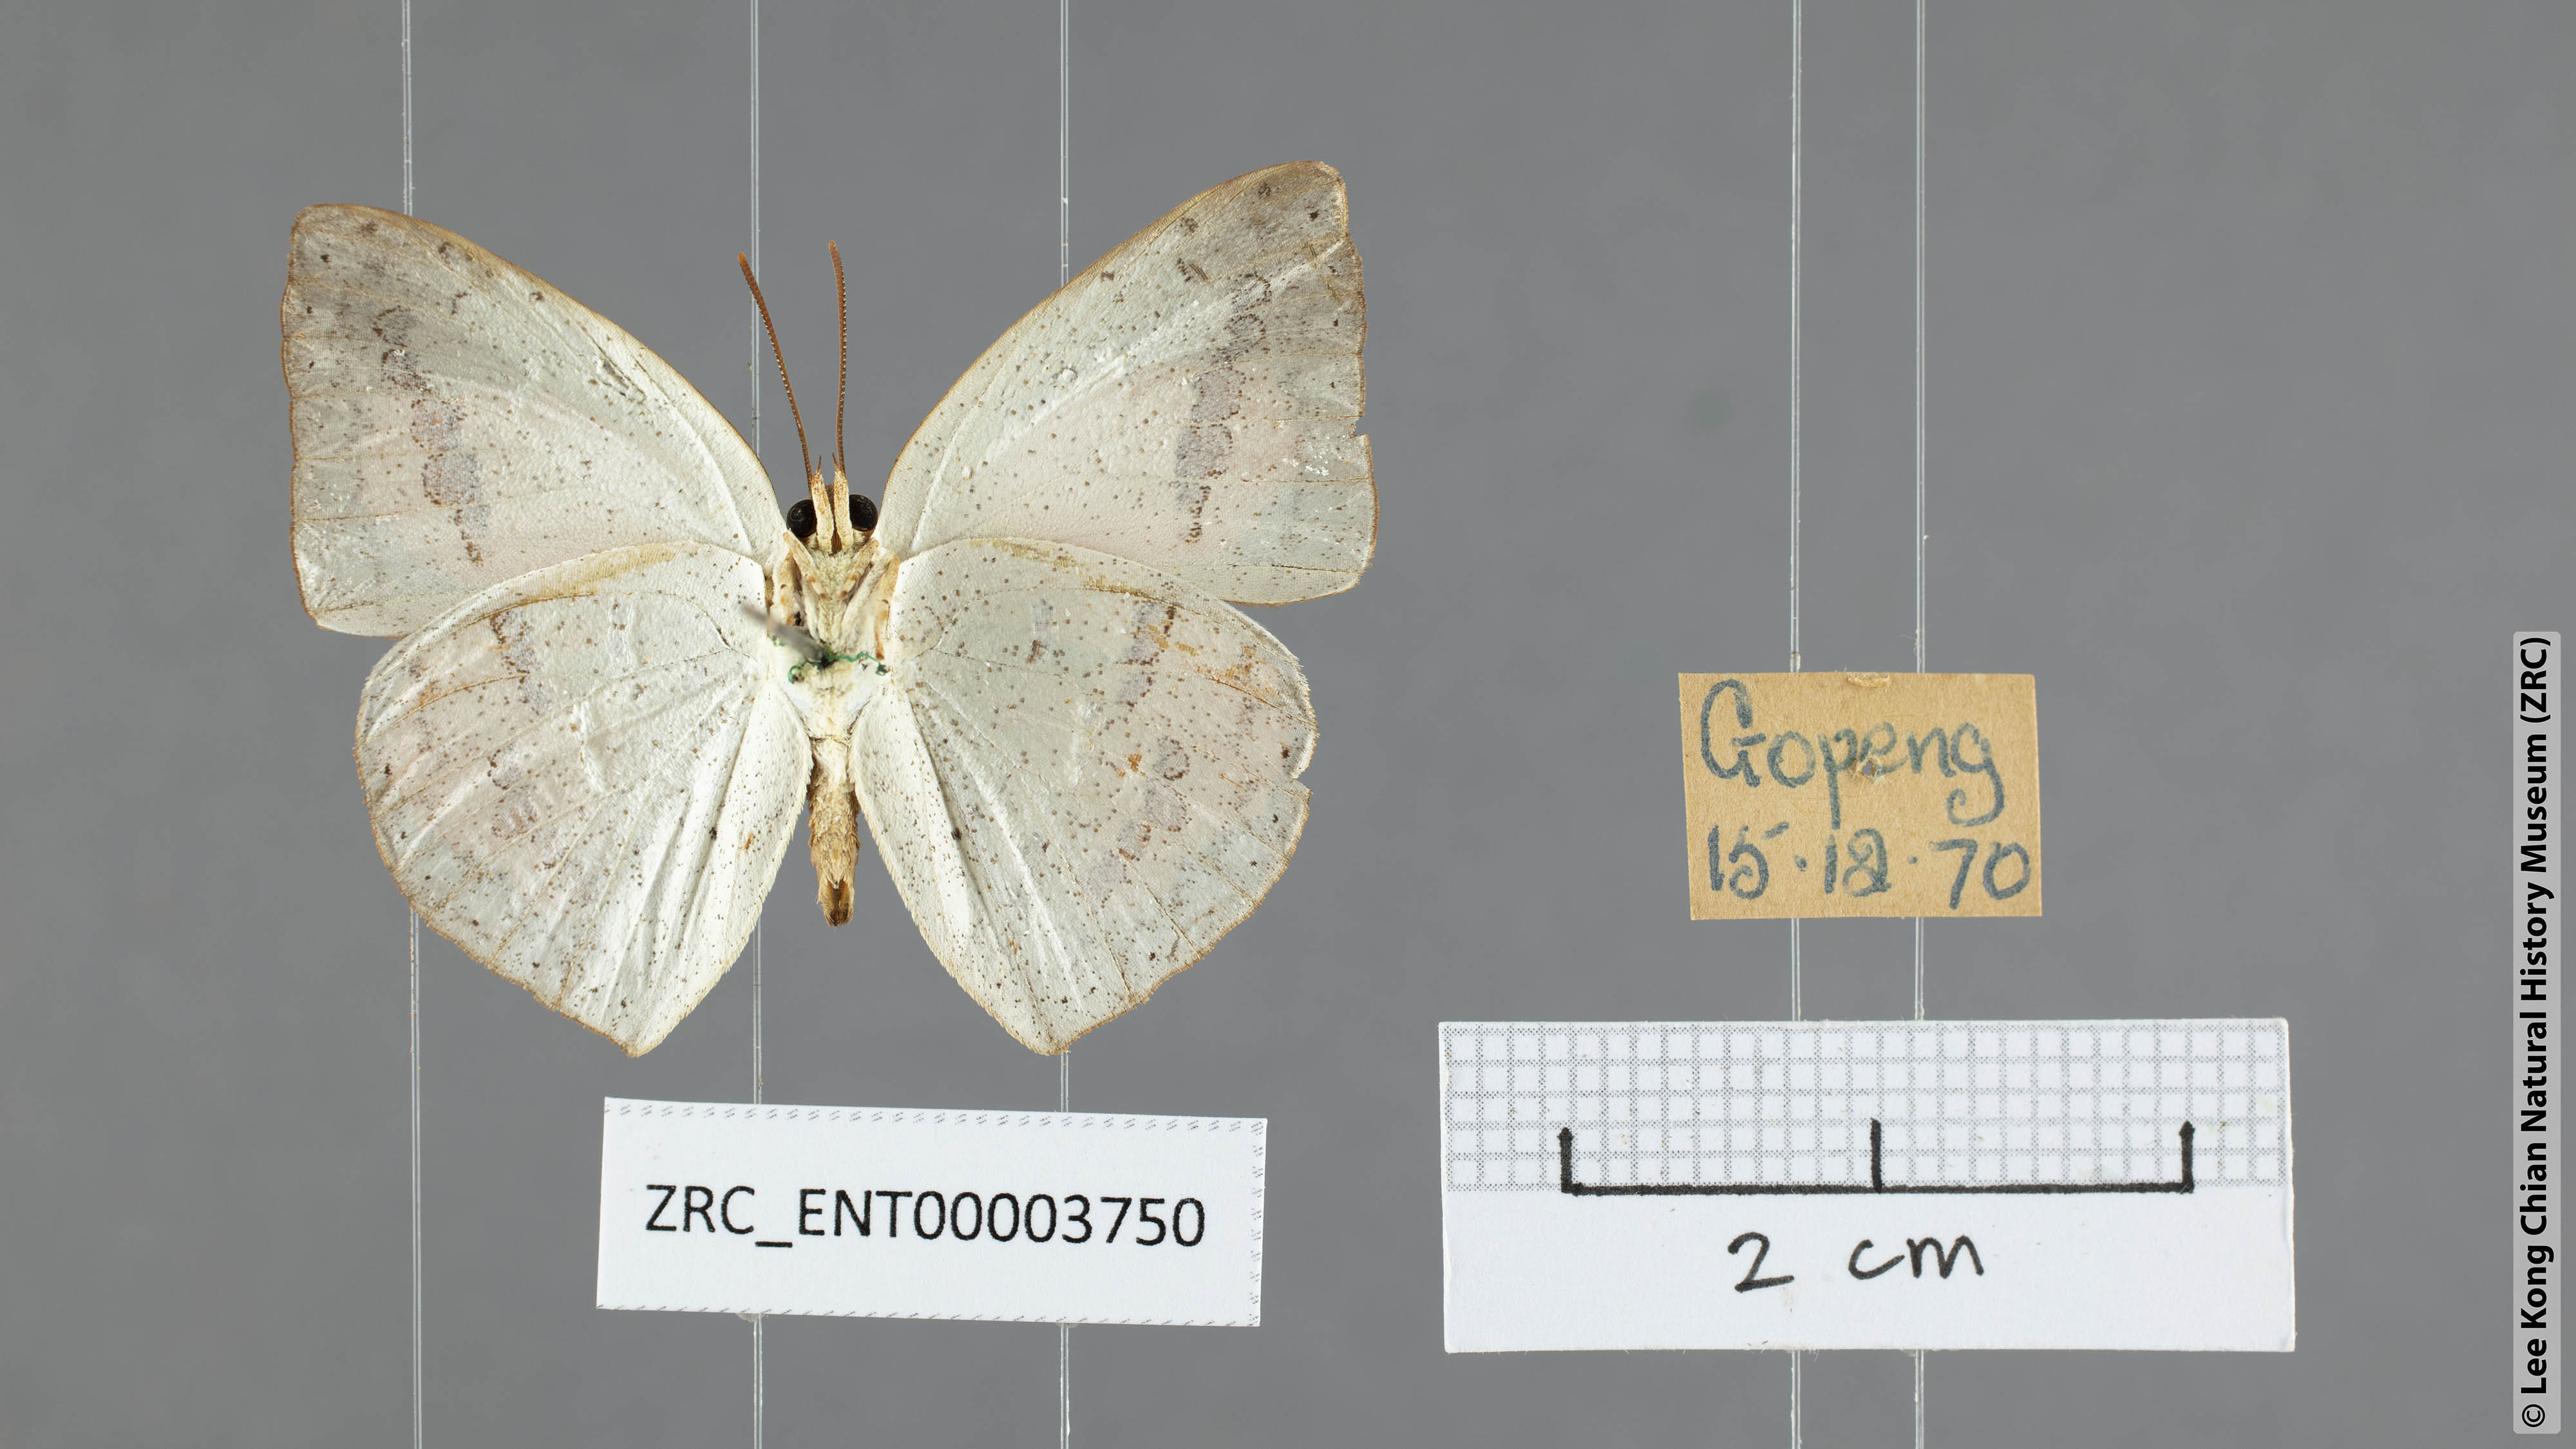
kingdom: Animalia
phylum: Arthropoda
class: Insecta
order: Lepidoptera
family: Lycaenidae
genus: Curetis
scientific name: Curetis santana
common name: Malayan sunbeam
